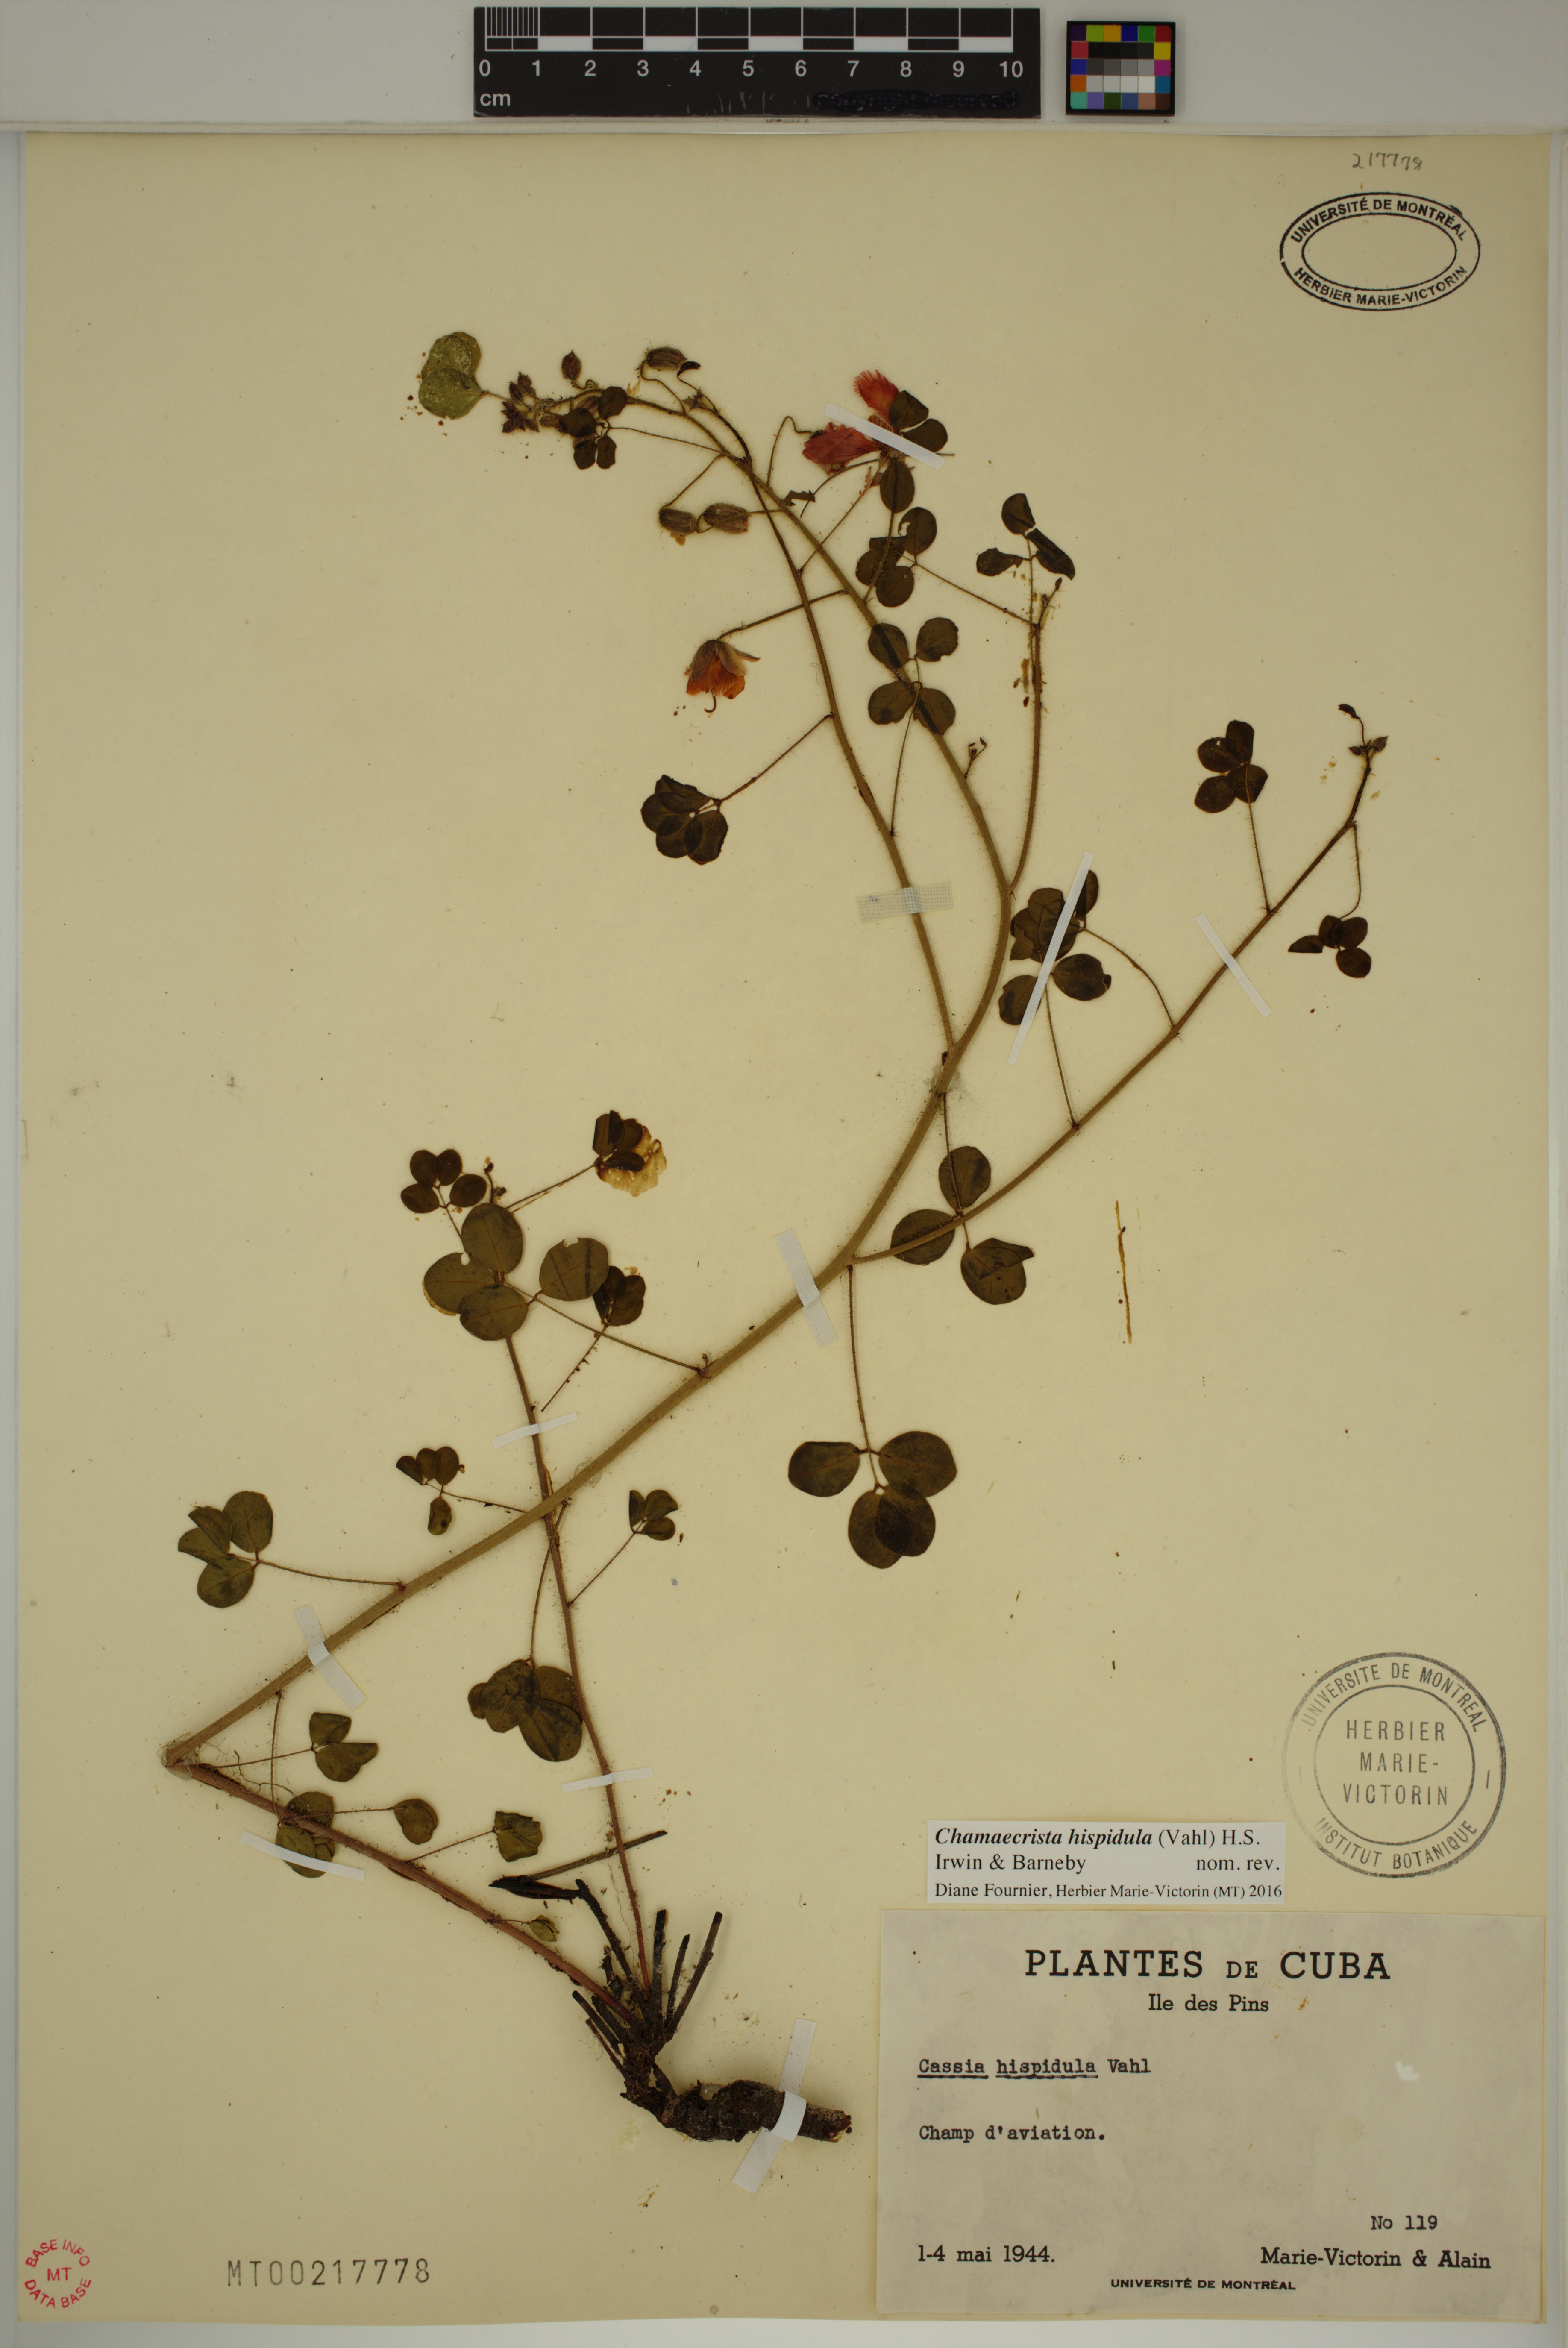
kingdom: Plantae
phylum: Tracheophyta
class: Magnoliopsida
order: Fabales
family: Fabaceae
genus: Chamaecrista
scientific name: Chamaecrista hispidula
